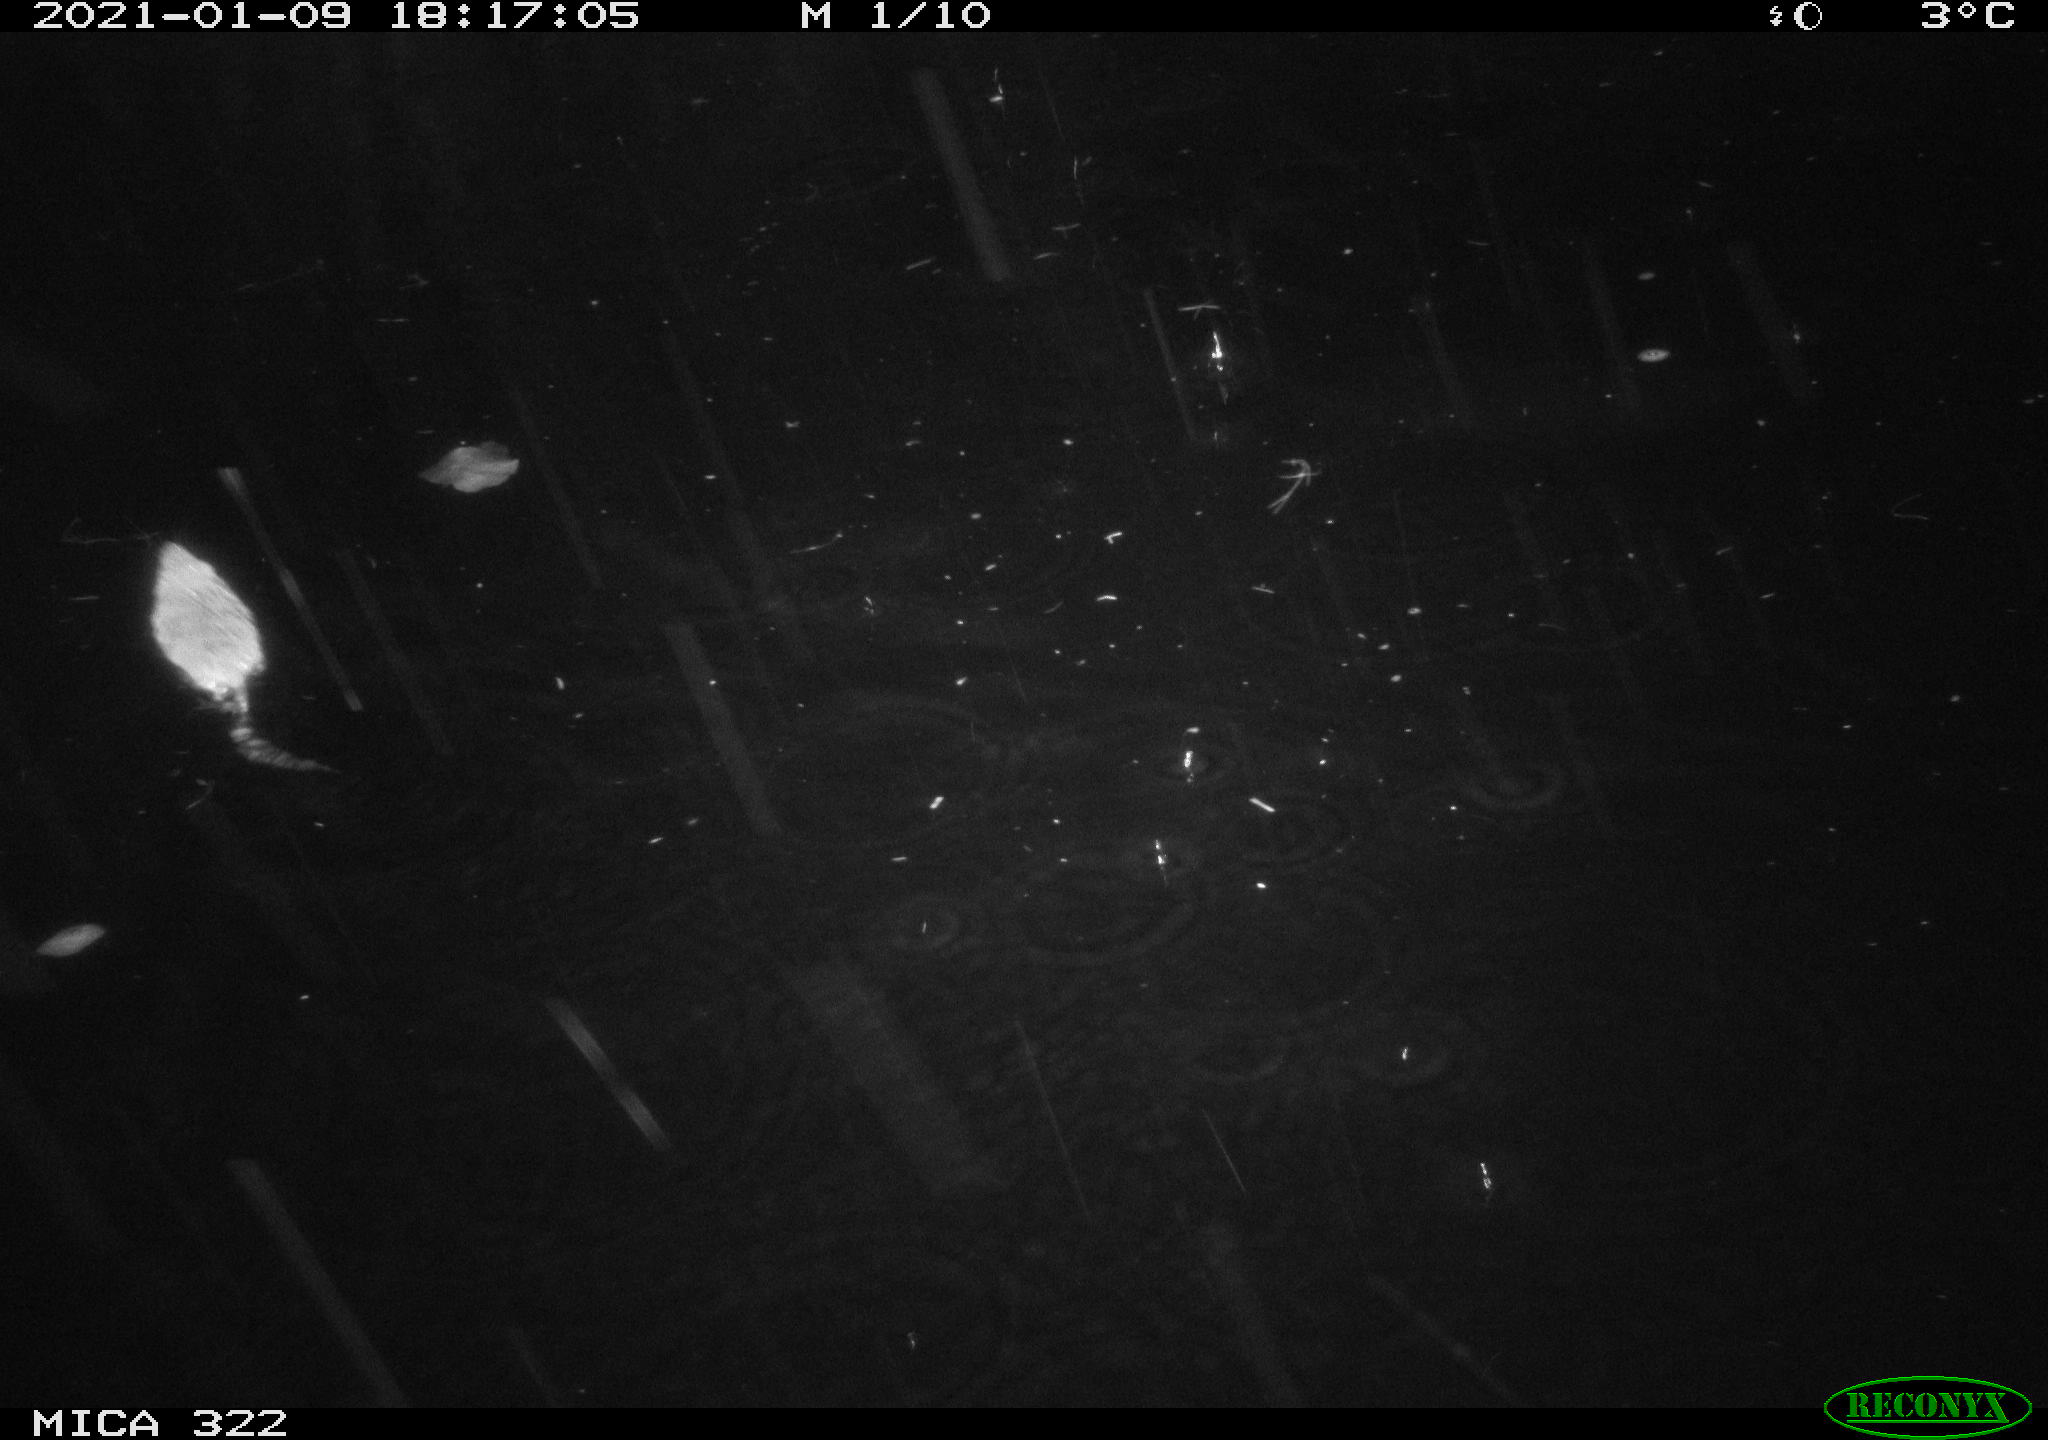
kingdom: Animalia
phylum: Chordata
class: Mammalia
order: Rodentia
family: Muridae
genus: Rattus
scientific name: Rattus norvegicus
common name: Brown rat
